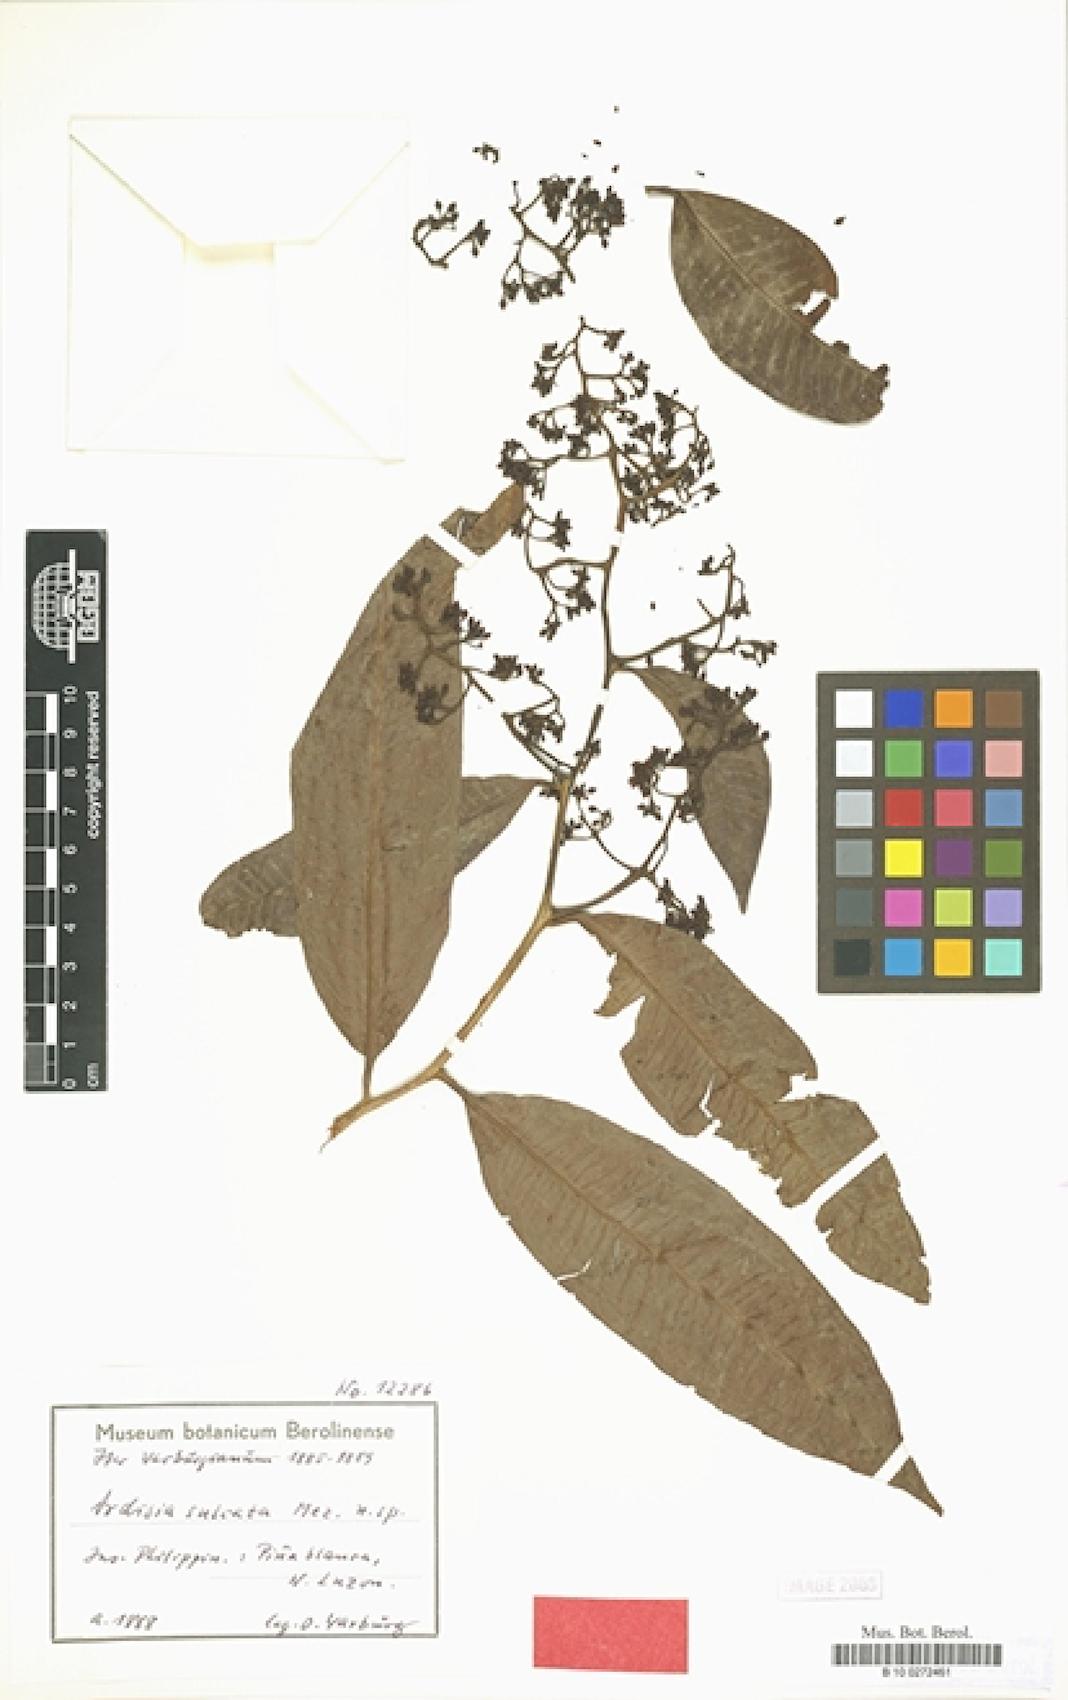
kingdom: Plantae
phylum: Tracheophyta
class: Magnoliopsida
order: Ericales
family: Primulaceae
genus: Ardisia
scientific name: Ardisia sulcata
